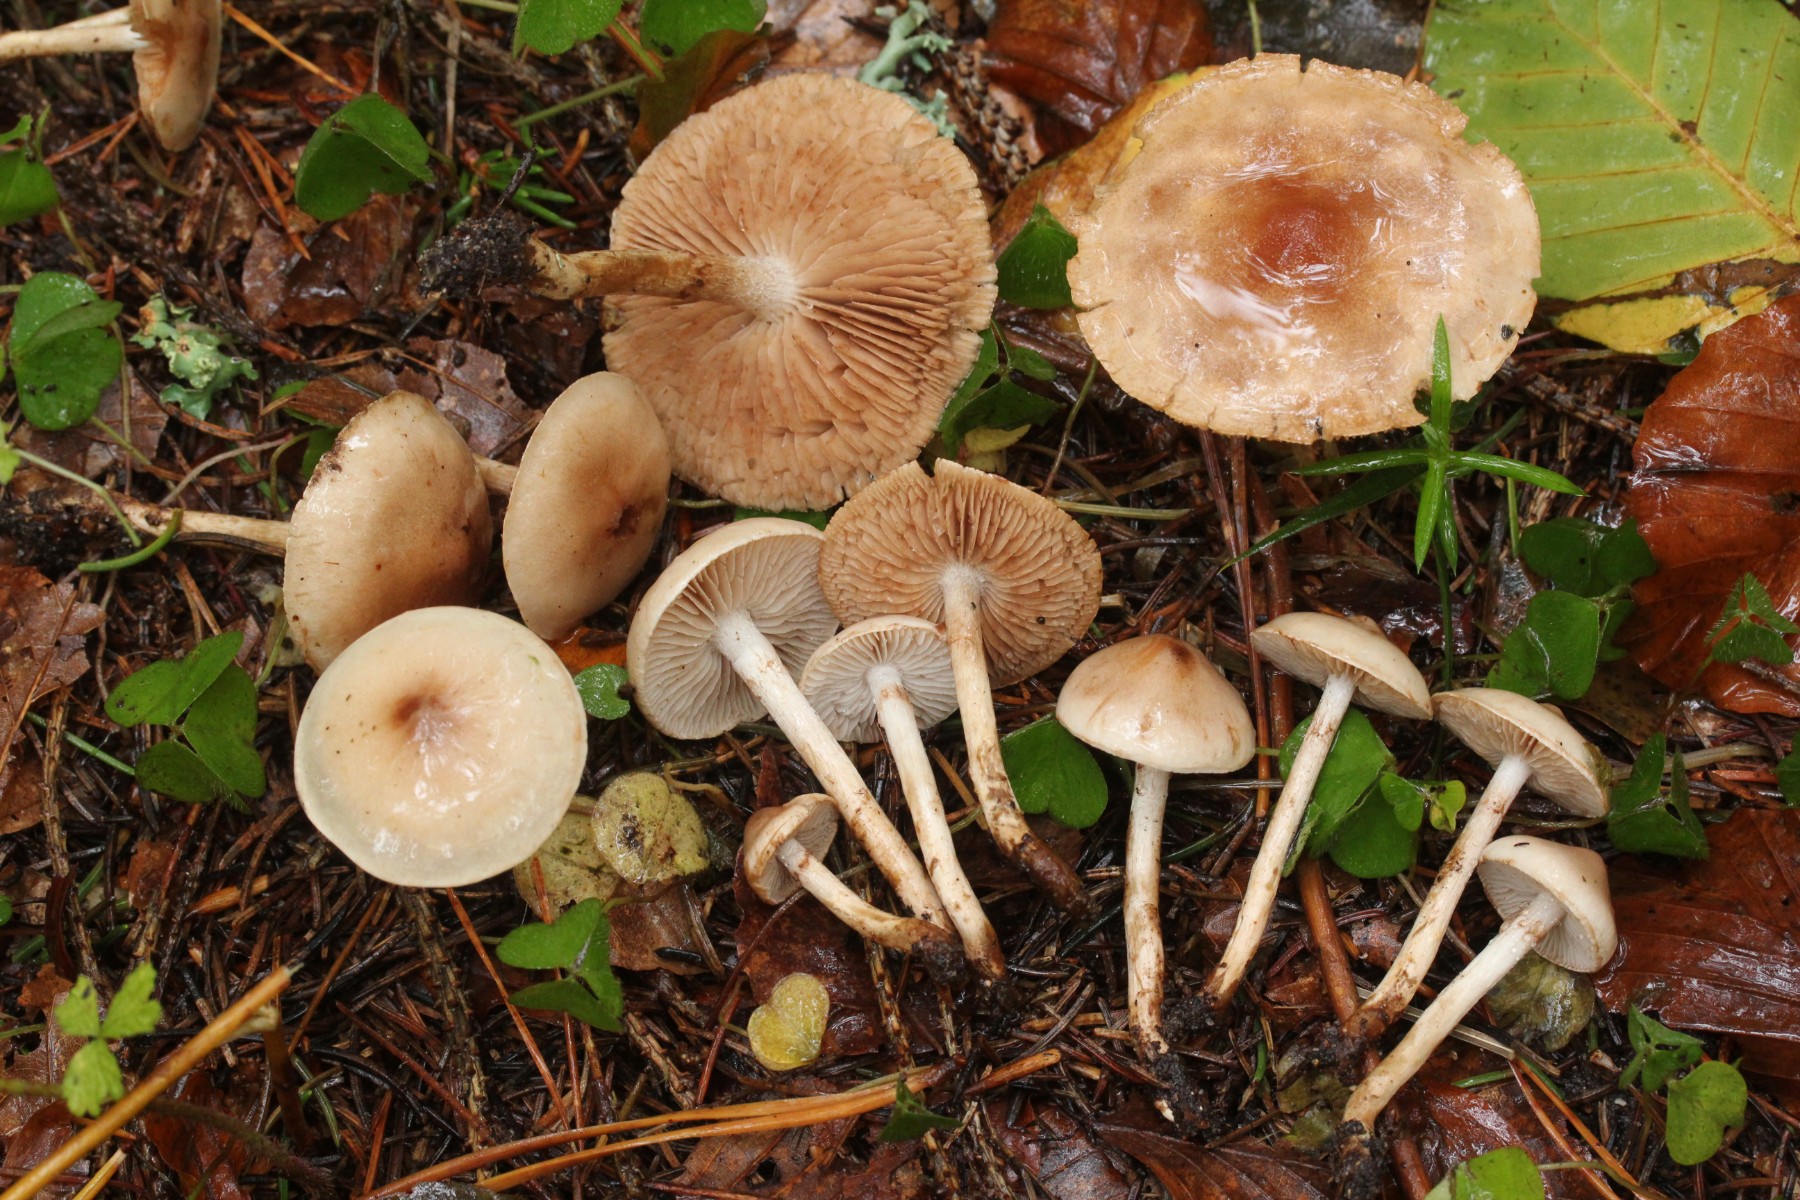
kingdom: Fungi
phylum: Basidiomycota
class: Agaricomycetes
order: Agaricales
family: Hymenogastraceae
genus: Hebeloma
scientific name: Hebeloma
